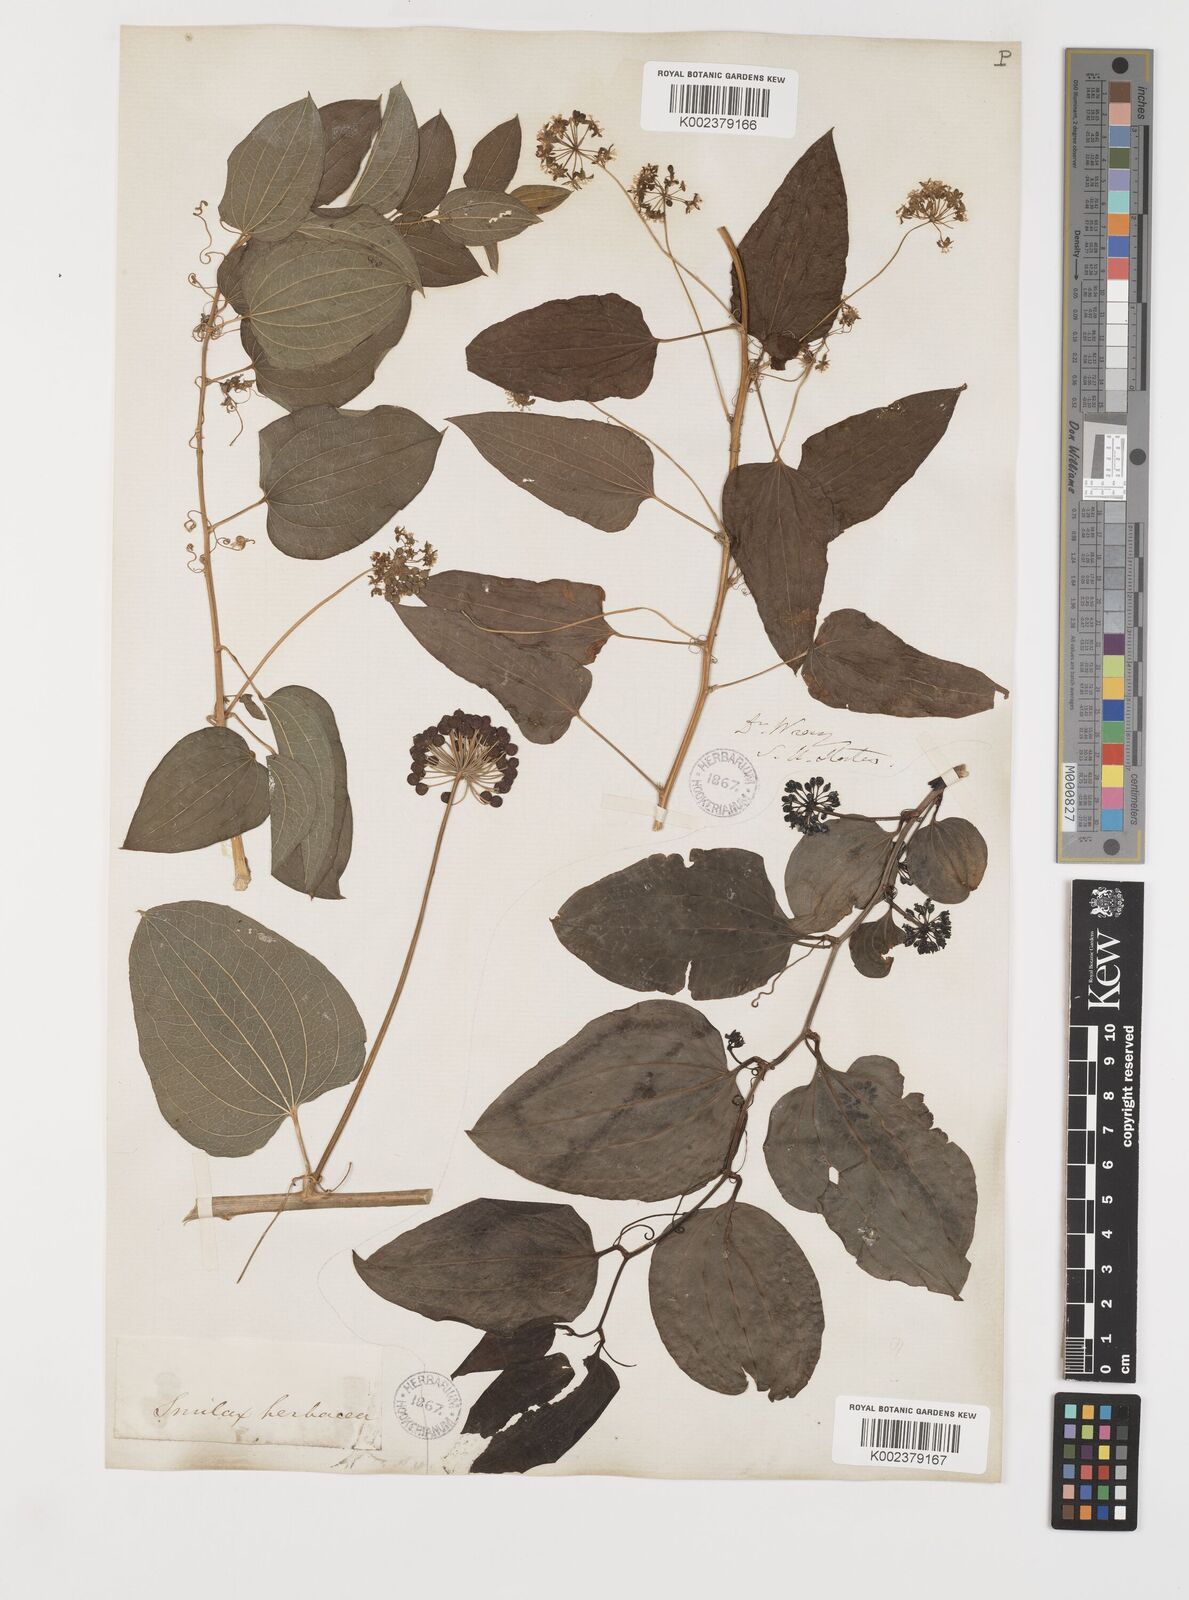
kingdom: Plantae
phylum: Tracheophyta
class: Liliopsida
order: Liliales
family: Smilacaceae
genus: Smilax
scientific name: Smilax herbacea
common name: Jacob's-ladder
